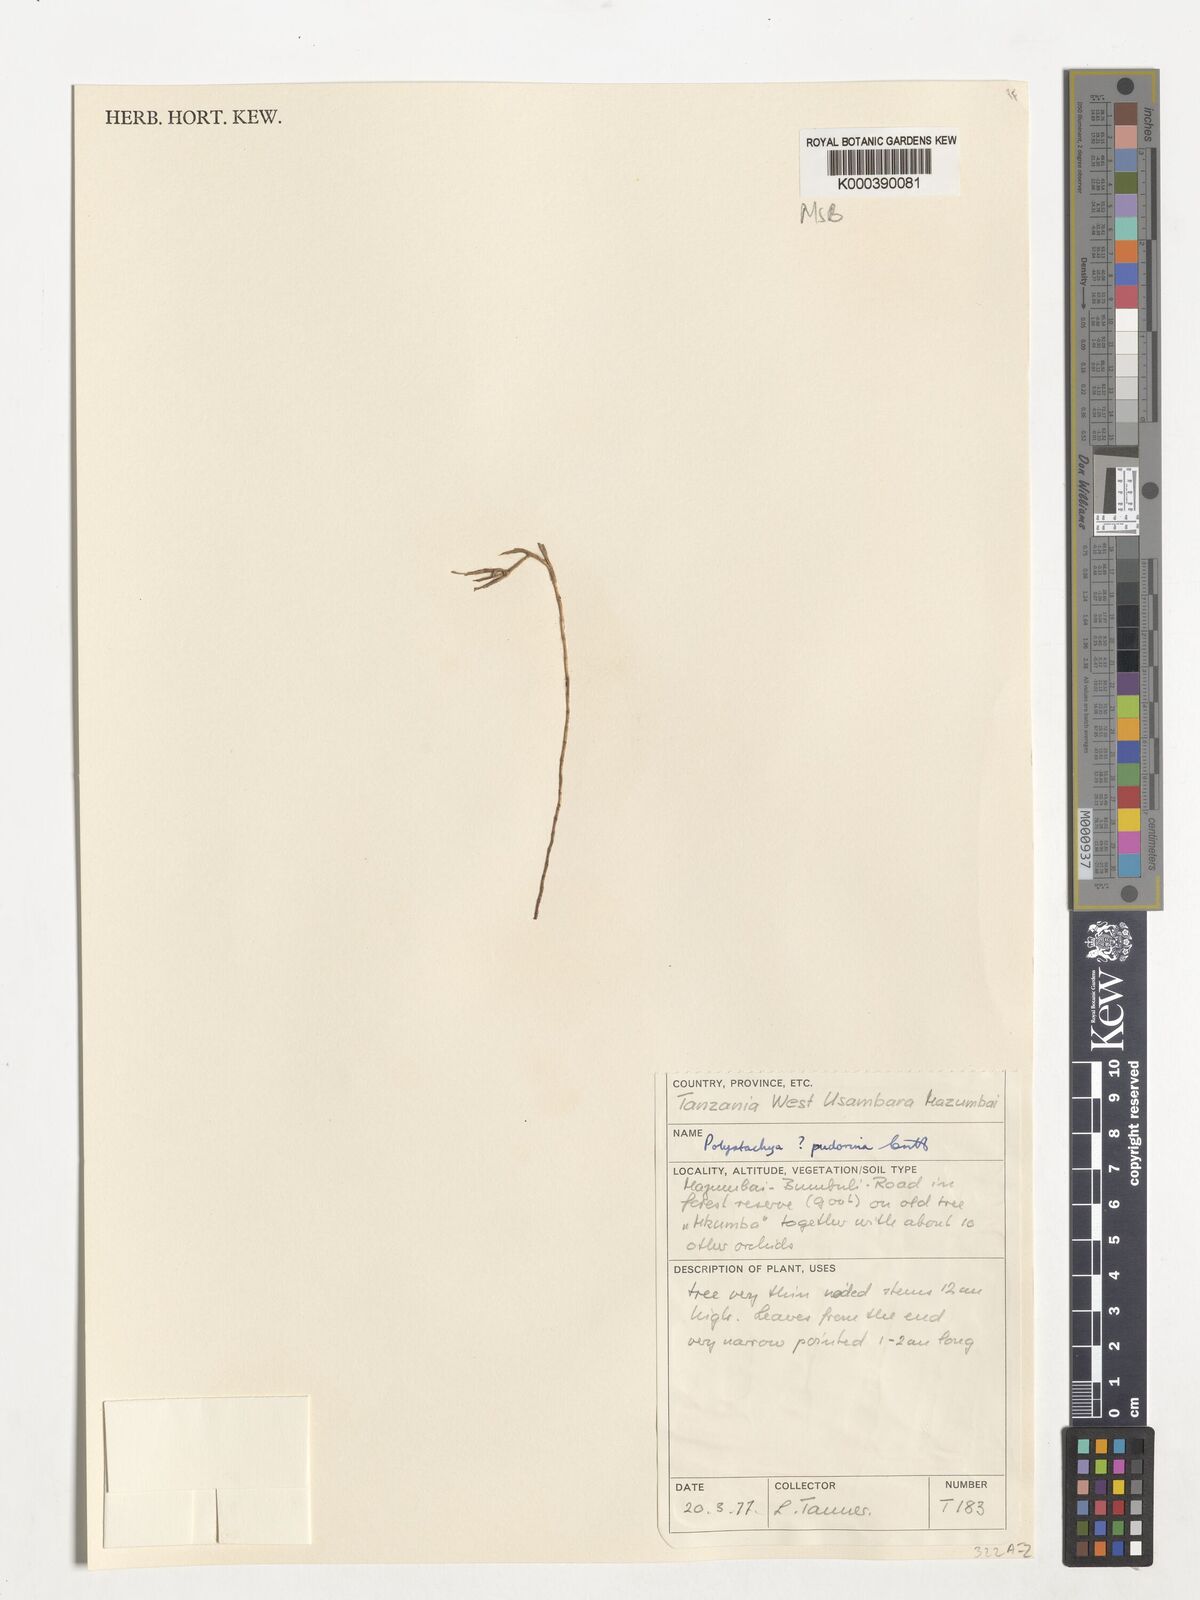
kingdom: Plantae
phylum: Tracheophyta
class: Liliopsida
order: Asparagales
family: Orchidaceae
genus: Polystachya
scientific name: Polystachya pudorina
